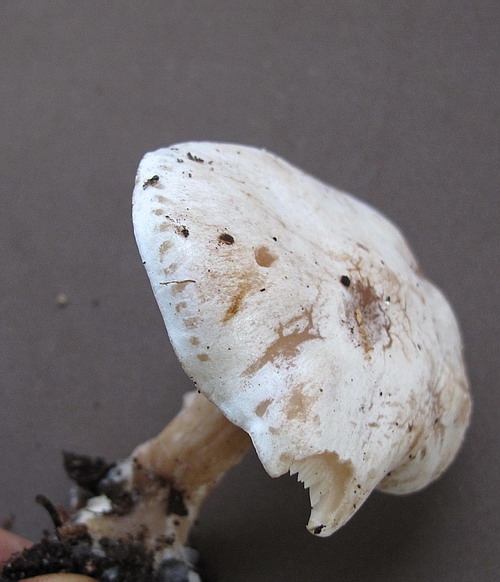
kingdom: Fungi
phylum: Basidiomycota
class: Agaricomycetes
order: Agaricales
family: Tricholomataceae
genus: Clitocybe
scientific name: Clitocybe phyllophila
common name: løv-tragthat
